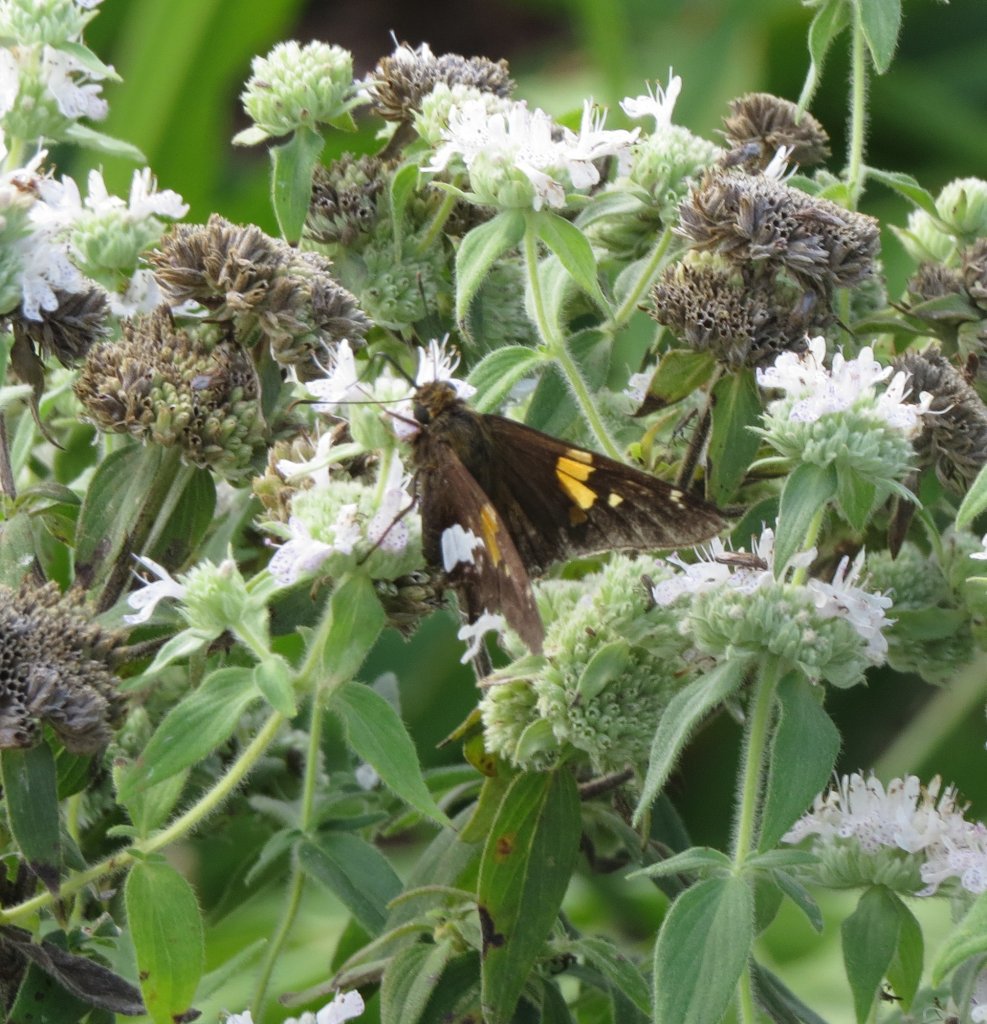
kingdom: Animalia
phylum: Arthropoda
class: Insecta
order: Lepidoptera
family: Hesperiidae
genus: Epargyreus
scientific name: Epargyreus clarus
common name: Silver-spotted Skipper
